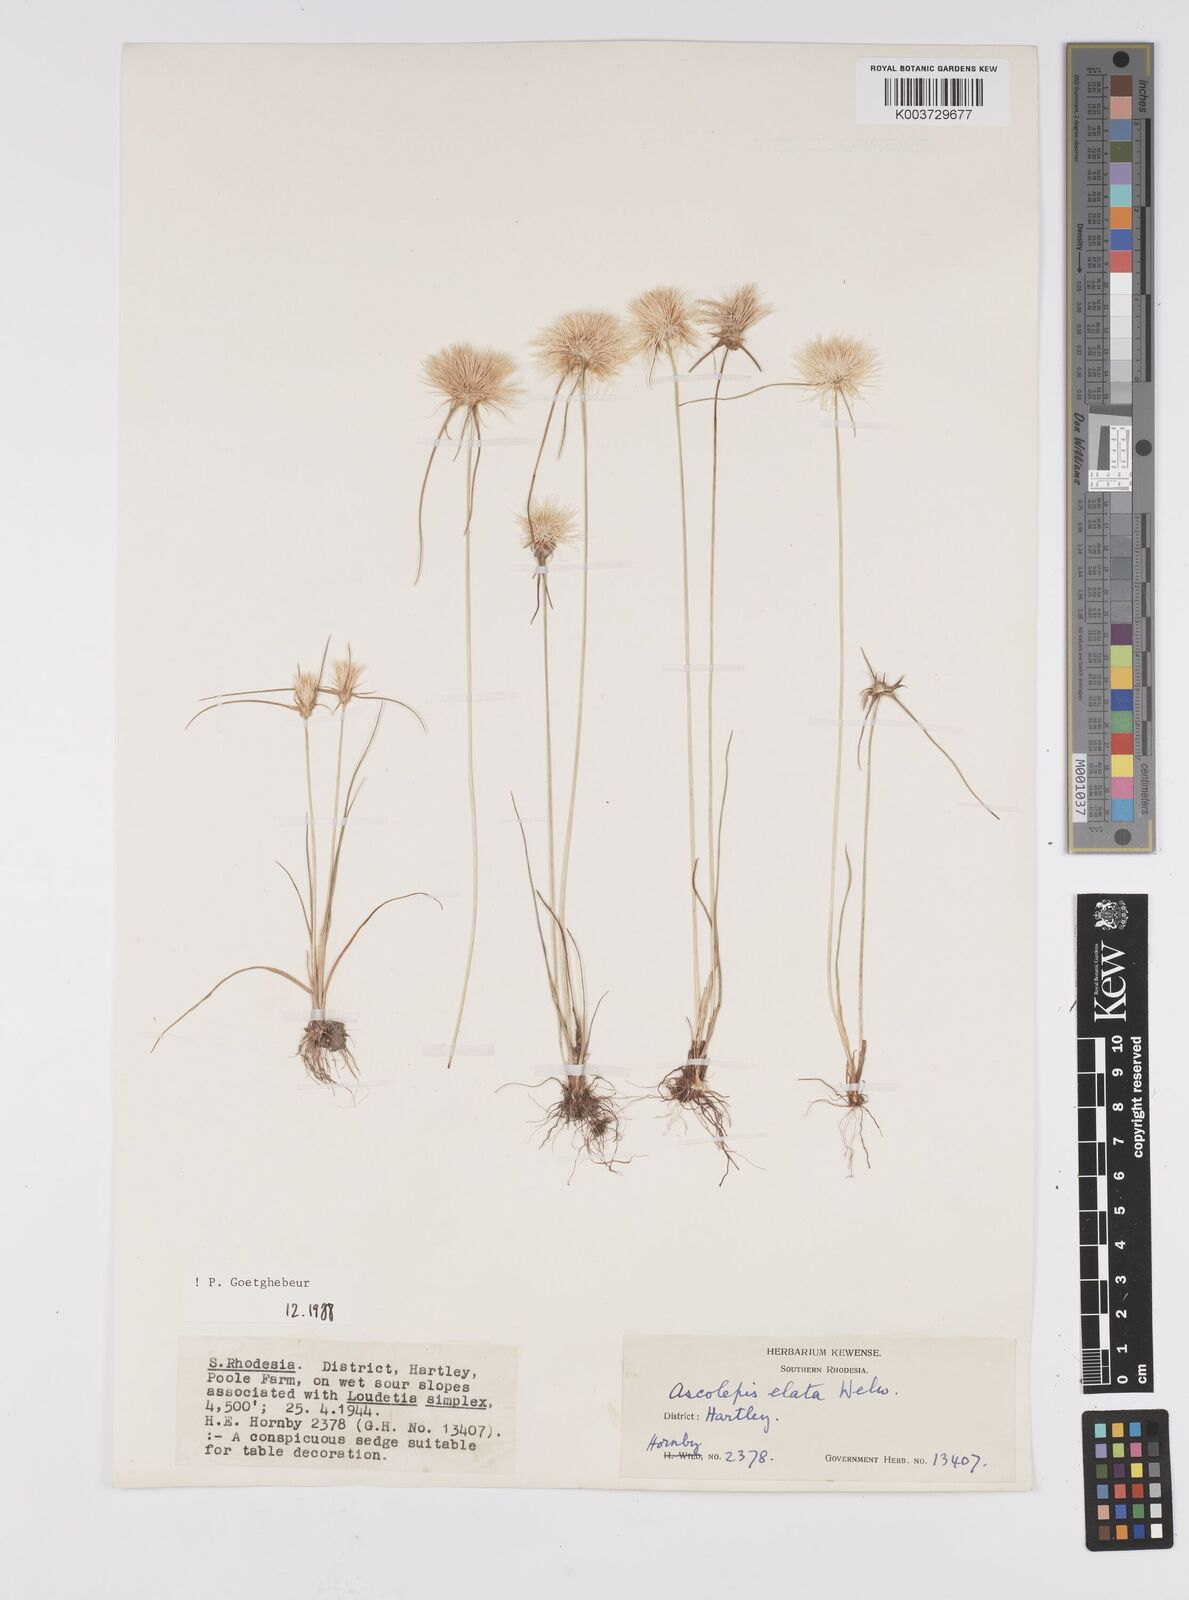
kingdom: Plantae
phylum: Tracheophyta
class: Liliopsida
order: Poales
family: Cyperaceae
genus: Cyperus
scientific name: Cyperus
